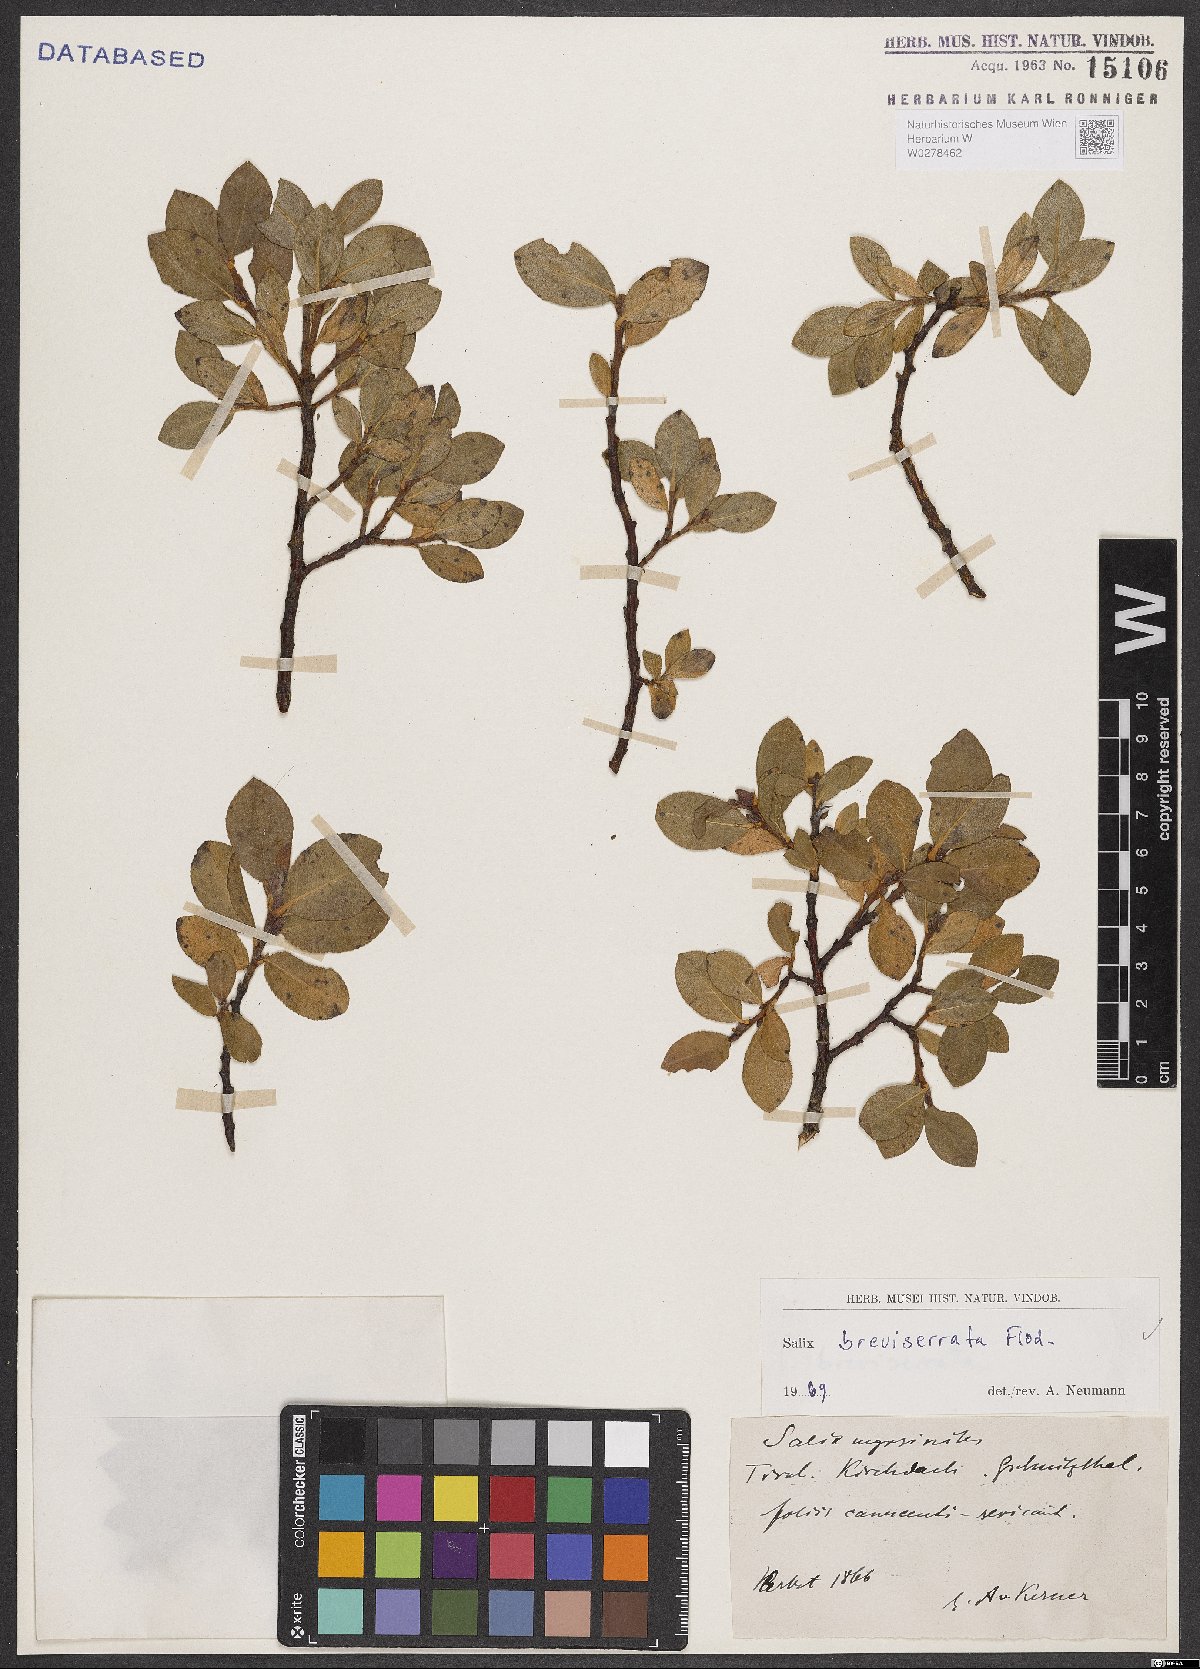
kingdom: Plantae
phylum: Tracheophyta
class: Magnoliopsida
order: Malpighiales
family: Salicaceae
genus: Salix
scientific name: Salix breviserrata
